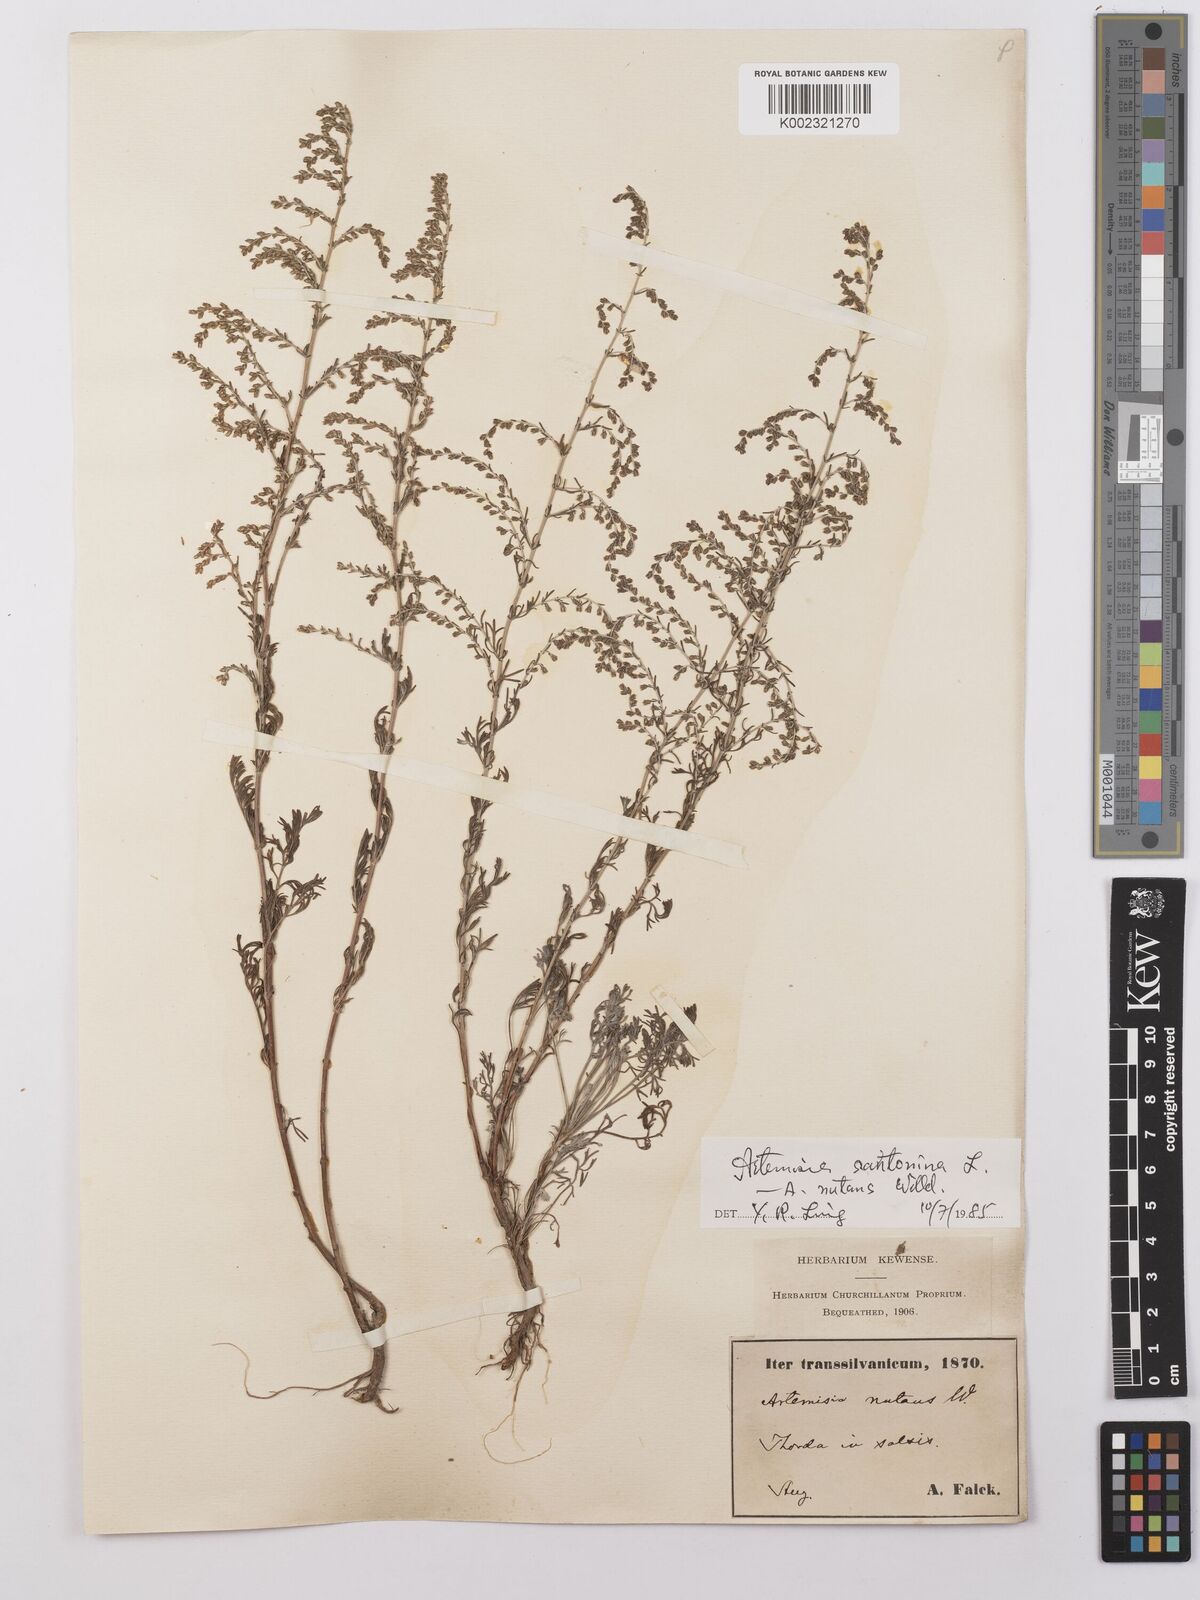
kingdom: Plantae
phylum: Tracheophyta
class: Magnoliopsida
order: Asterales
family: Asteraceae
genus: Artemisia
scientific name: Artemisia nutans
